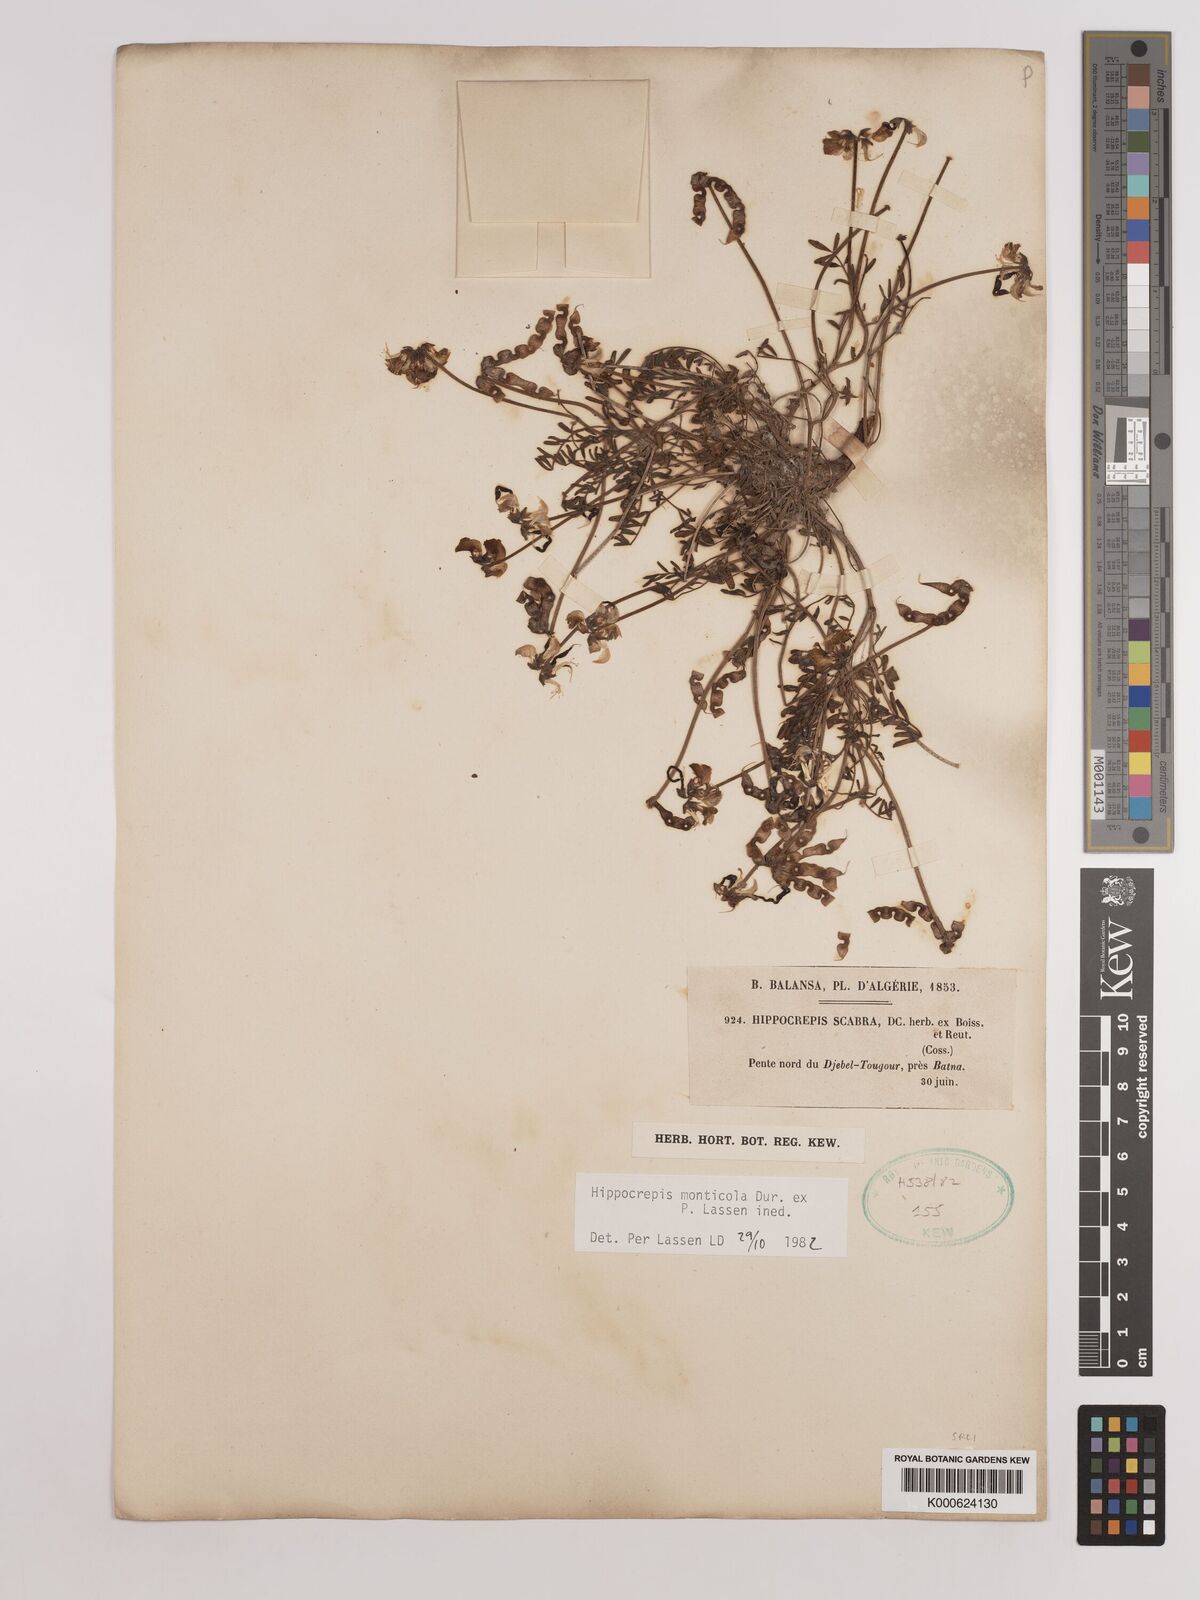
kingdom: Plantae
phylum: Tracheophyta
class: Magnoliopsida
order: Fabales
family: Fabaceae
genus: Hippocrepis
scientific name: Hippocrepis monticola
